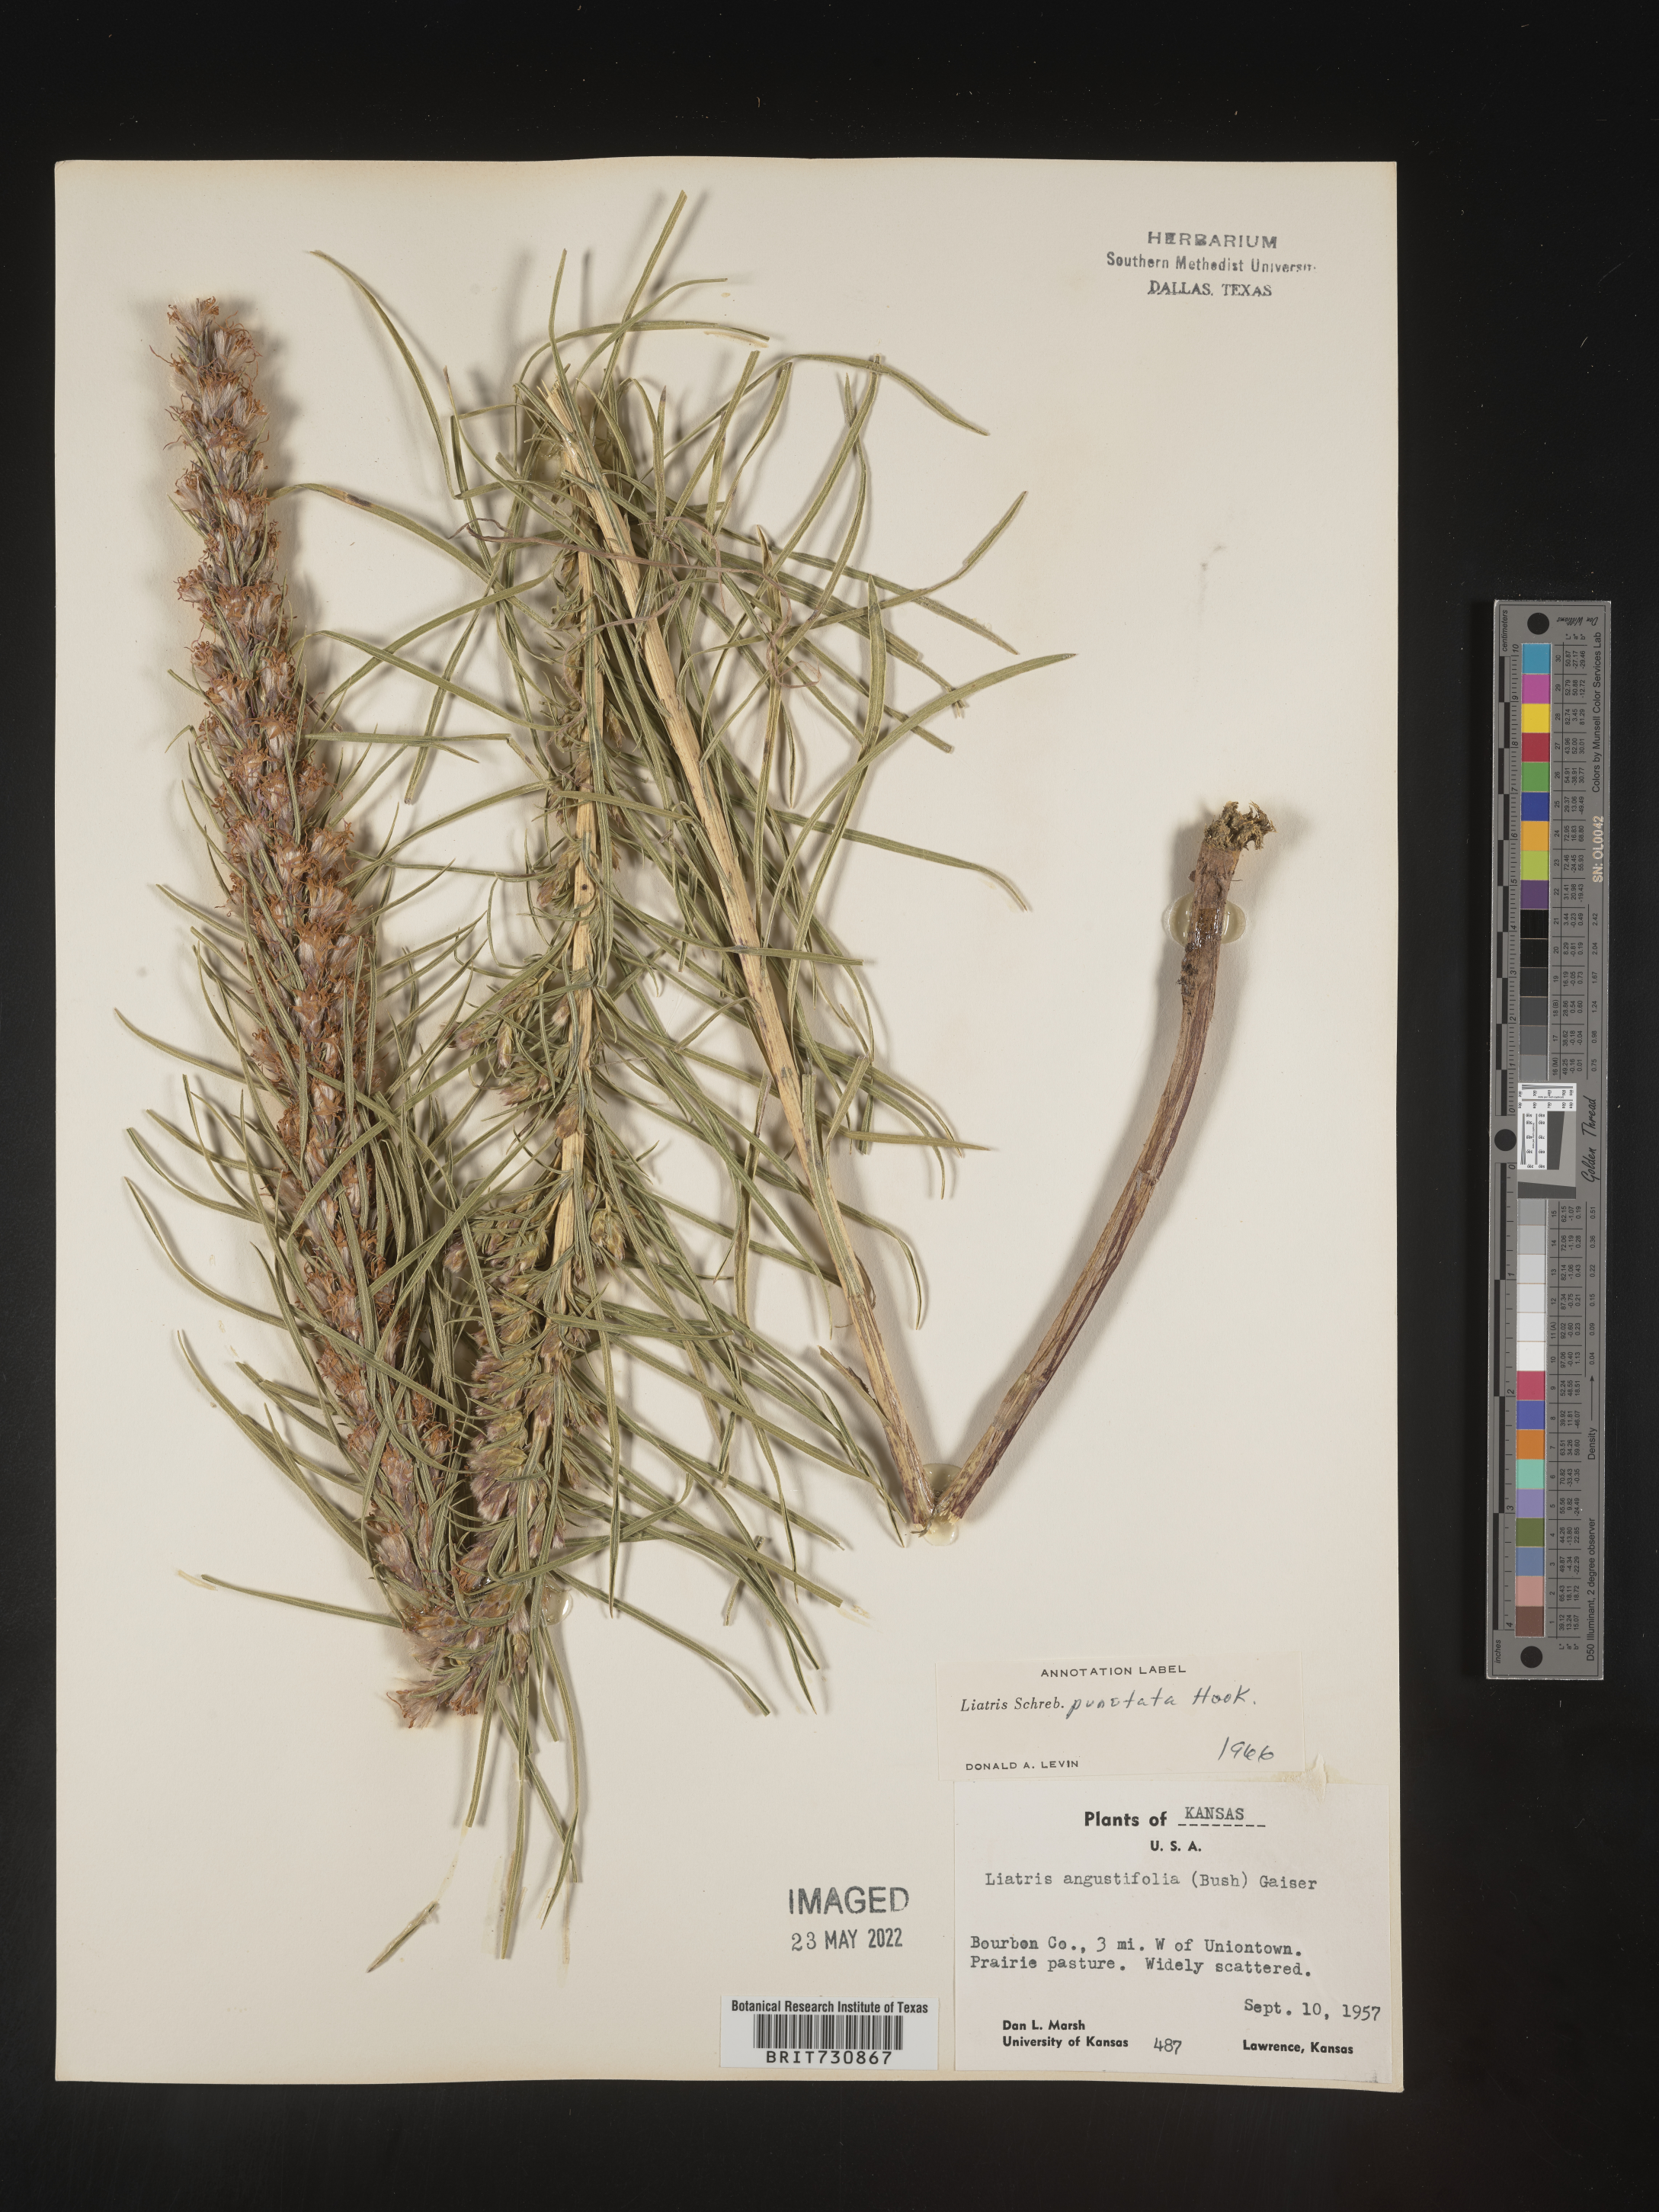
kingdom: Plantae
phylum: Tracheophyta
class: Magnoliopsida
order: Asterales
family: Asteraceae
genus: Liatris
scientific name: Liatris punctata
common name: Dotted gayfeather
